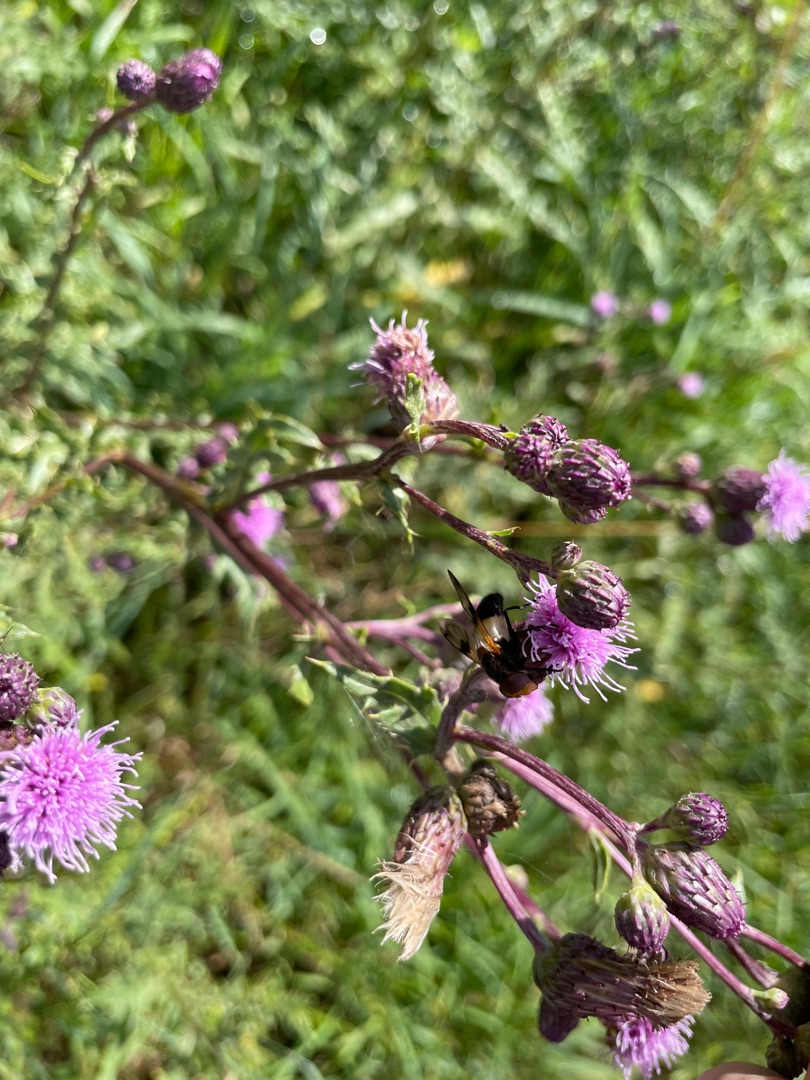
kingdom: Animalia
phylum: Arthropoda
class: Insecta
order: Diptera
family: Syrphidae
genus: Volucella
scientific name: Volucella pellucens
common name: Hvidbåndet humlesvirreflue
